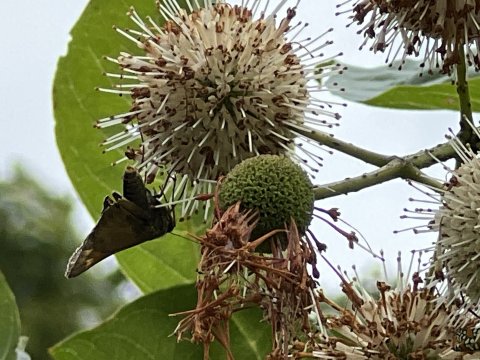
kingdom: Animalia
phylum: Arthropoda
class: Insecta
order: Lepidoptera
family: Hesperiidae
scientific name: Hesperiidae
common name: Skippers
